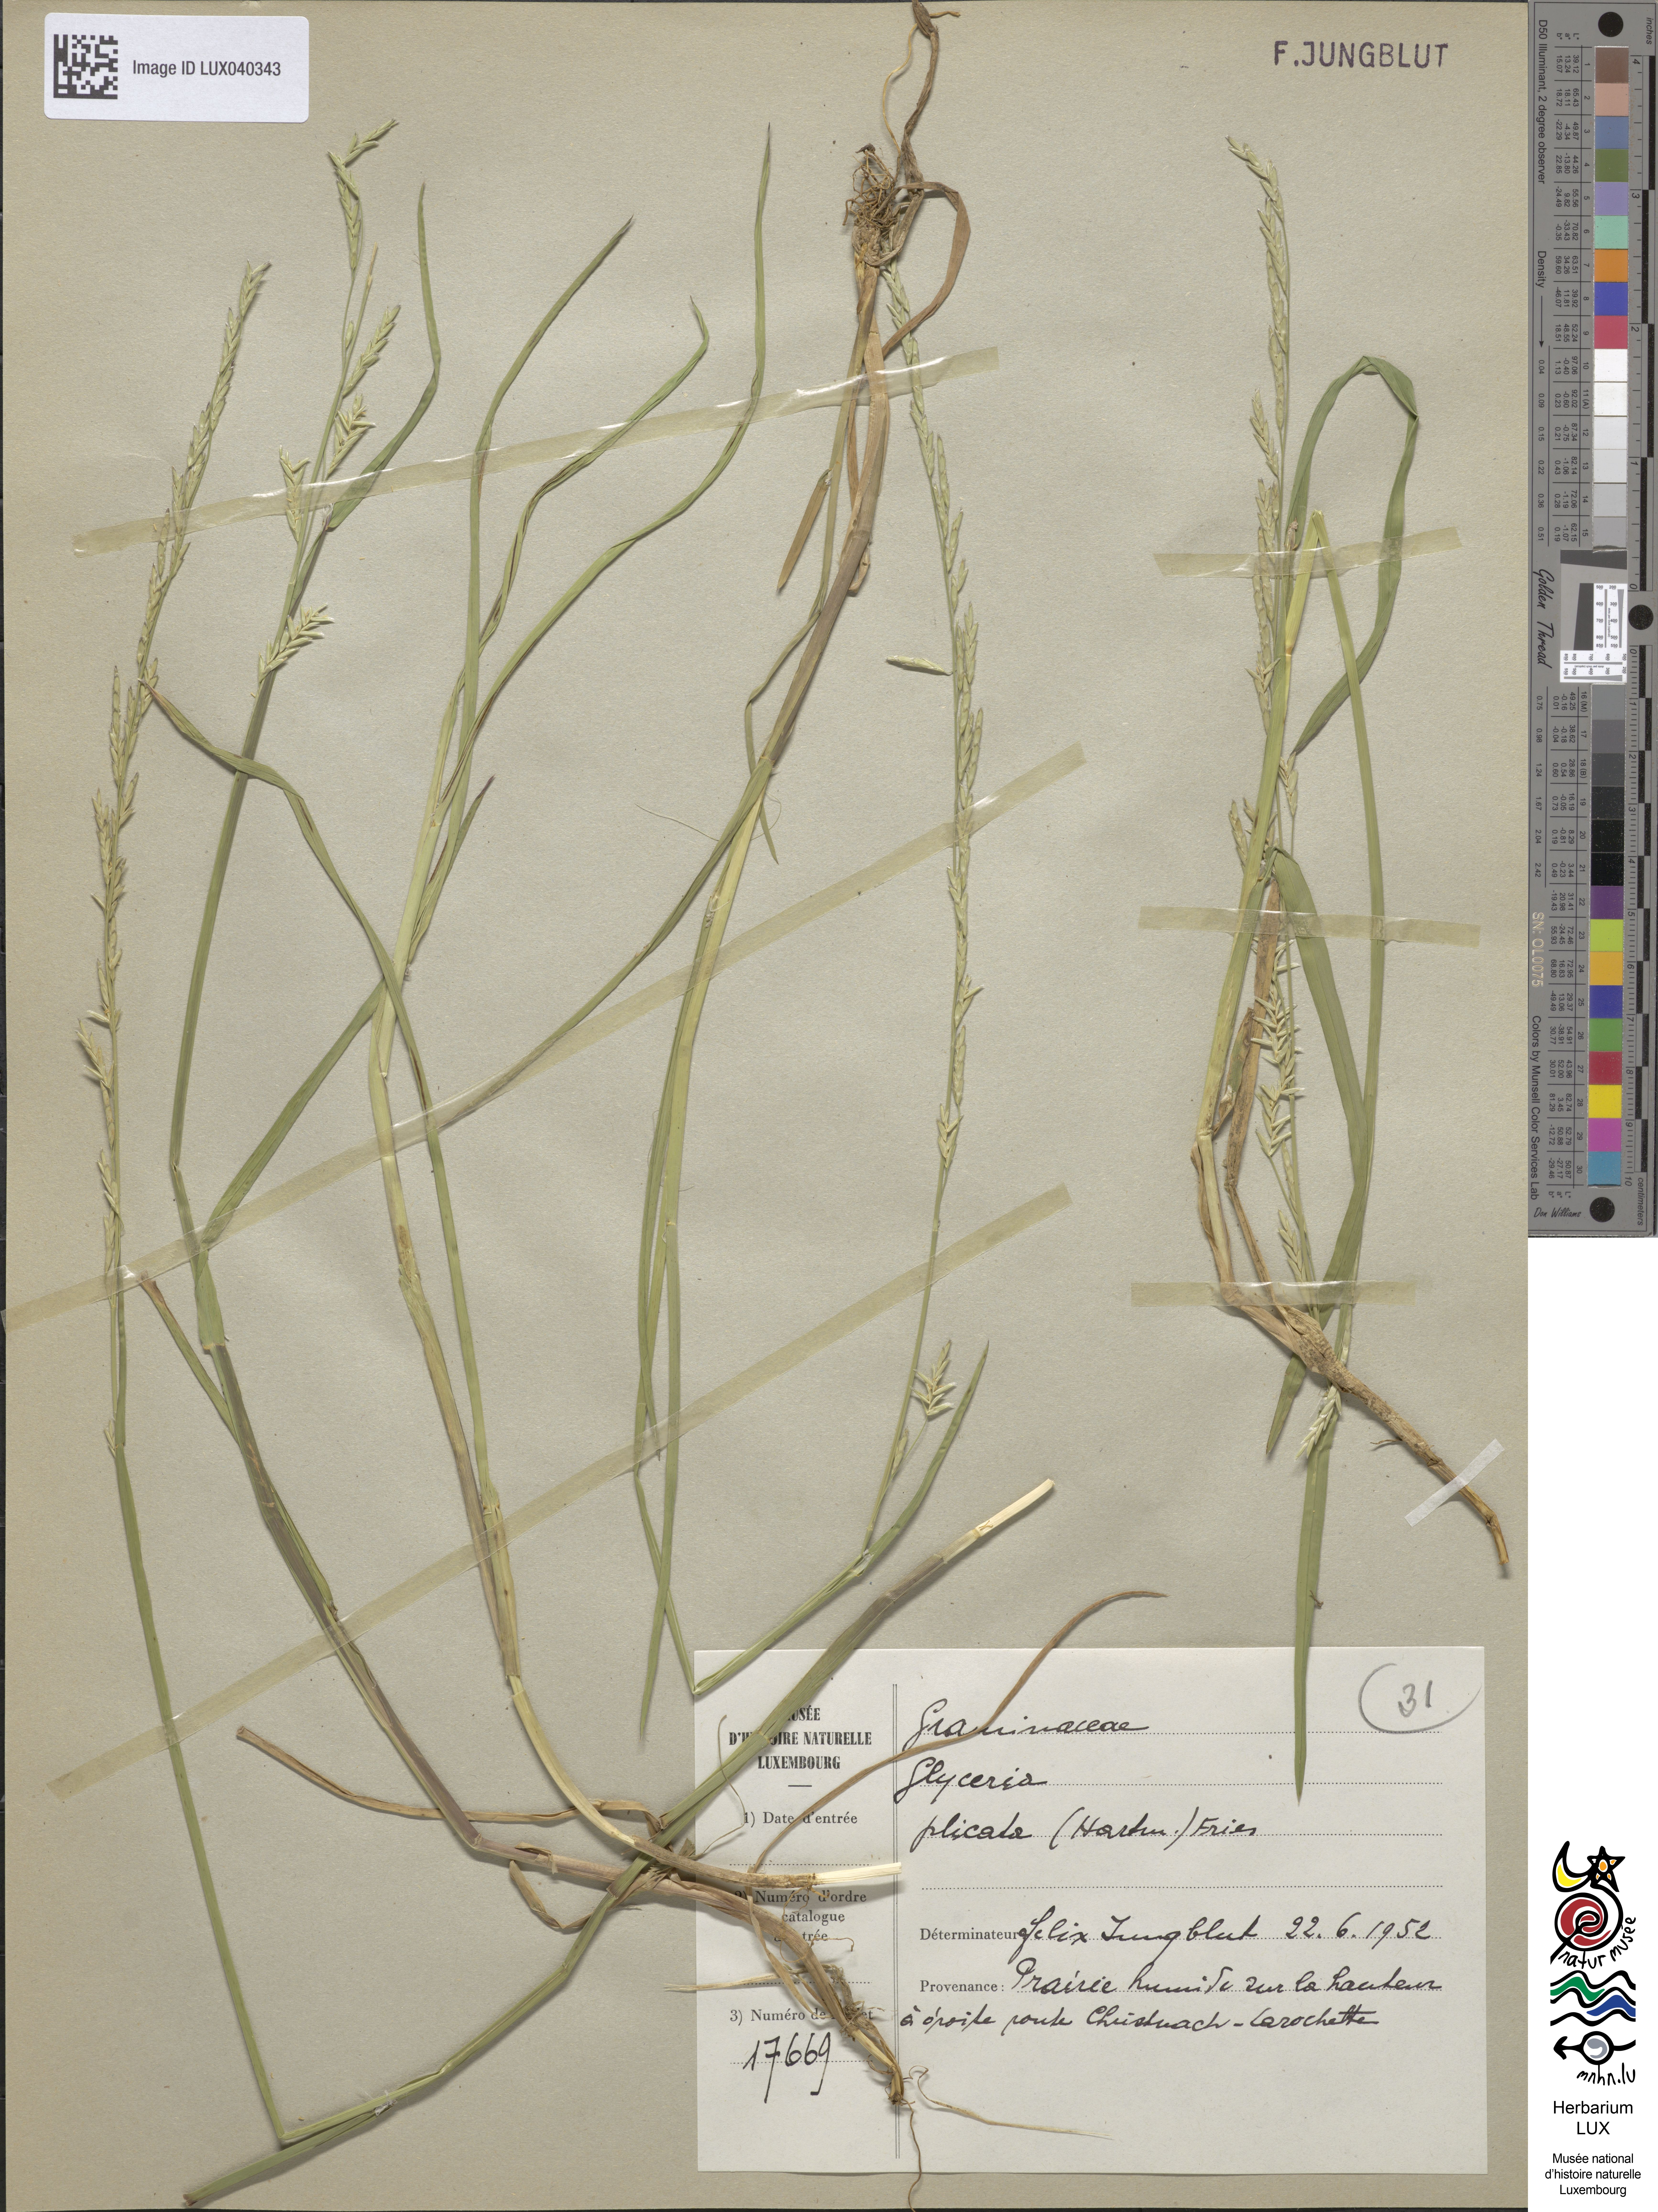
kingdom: Plantae
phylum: Tracheophyta
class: Liliopsida
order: Poales
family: Poaceae
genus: Glyceria
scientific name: Glyceria notata
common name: Plicate sweet-grass
